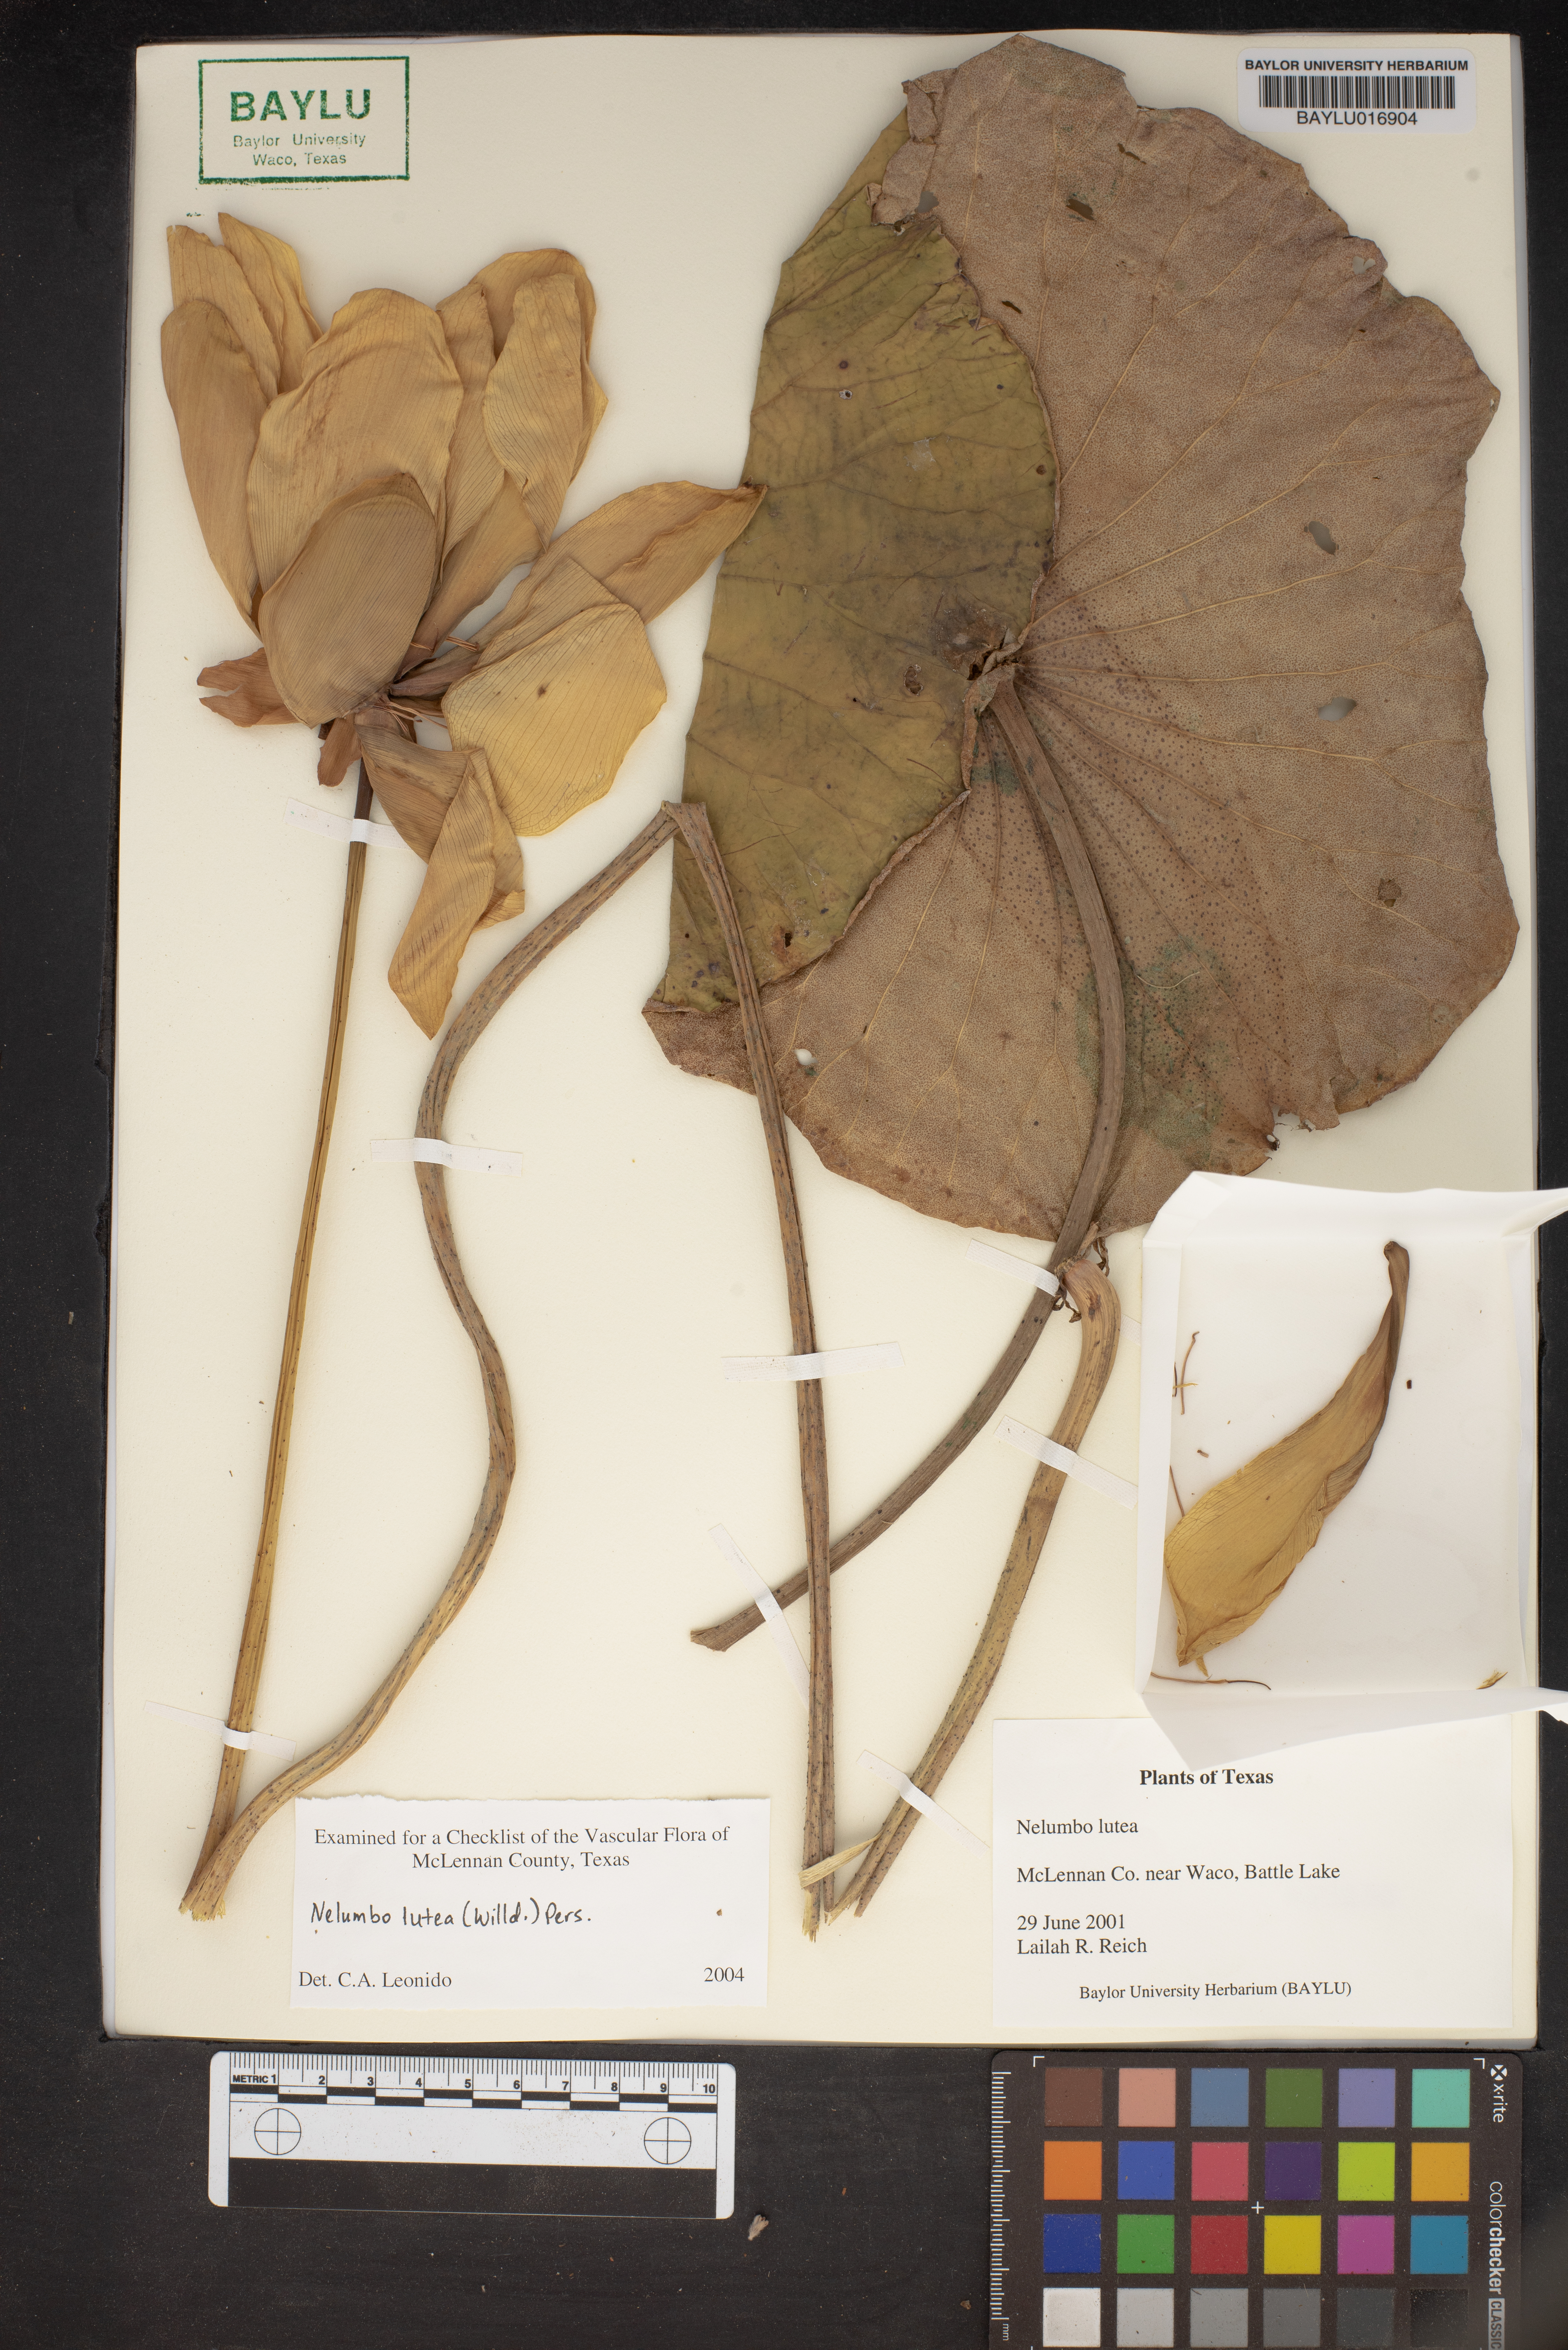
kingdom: Plantae
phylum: Tracheophyta
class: Magnoliopsida
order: Proteales
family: Nelumbonaceae
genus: Nelumbo
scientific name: Nelumbo lutea
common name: American lotus
